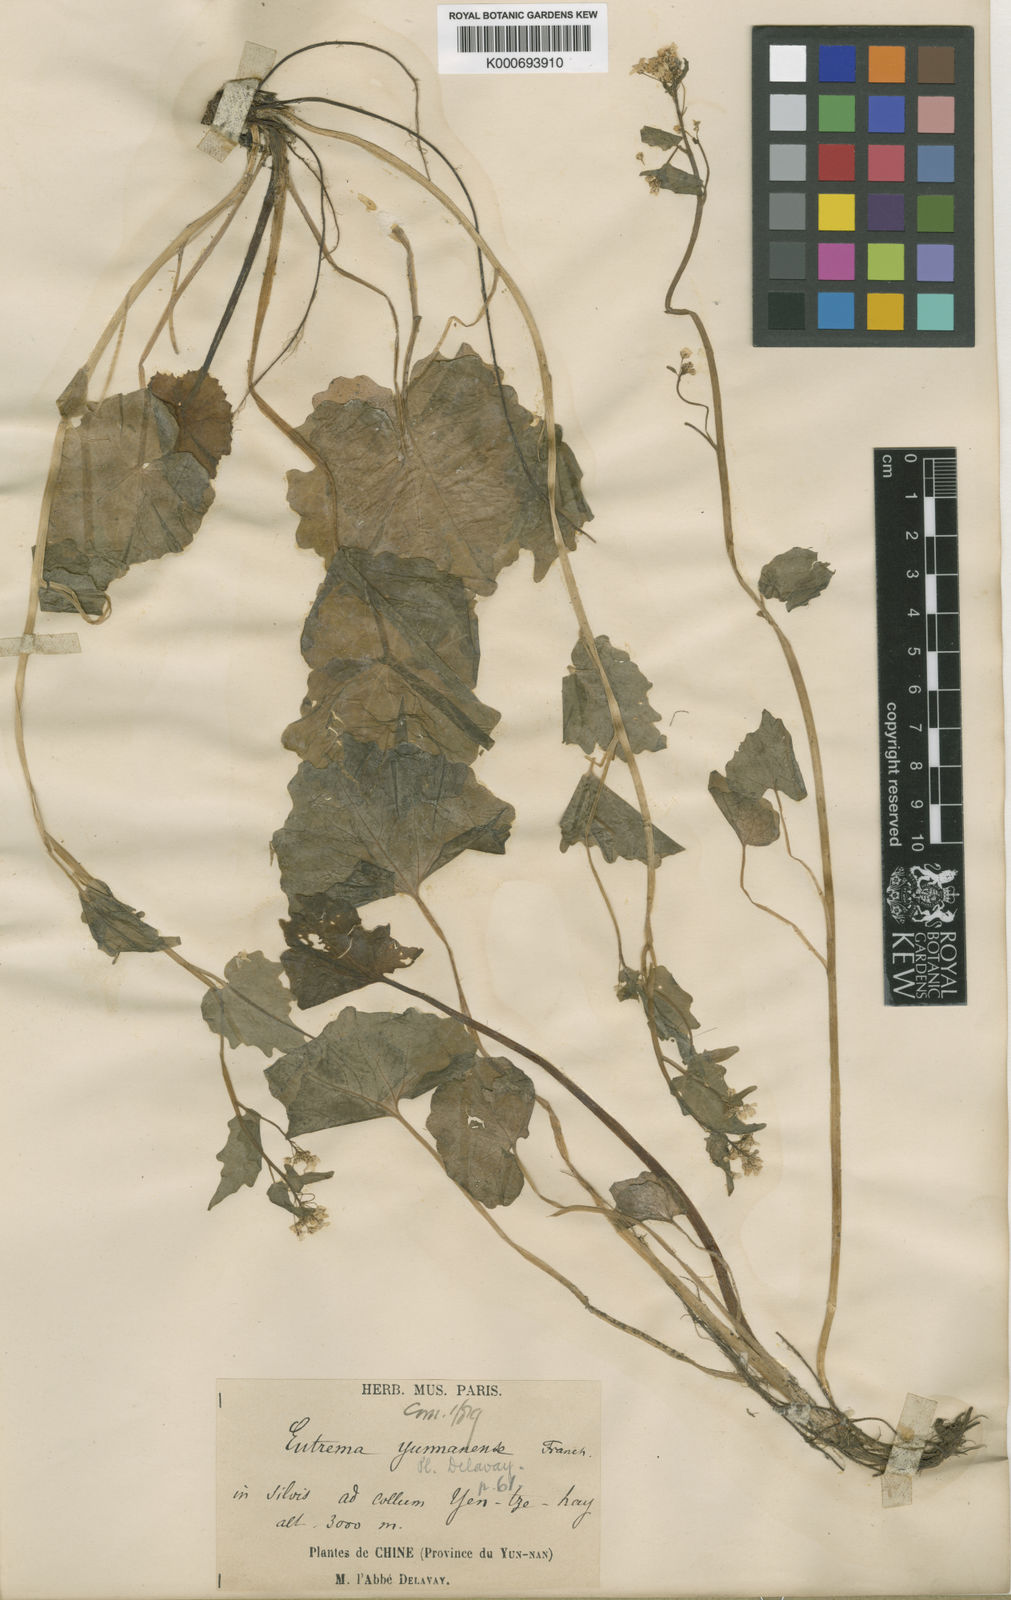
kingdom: Plantae
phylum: Tracheophyta
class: Magnoliopsida
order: Brassicales
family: Brassicaceae
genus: Eutrema
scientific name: Eutrema yunnanense
